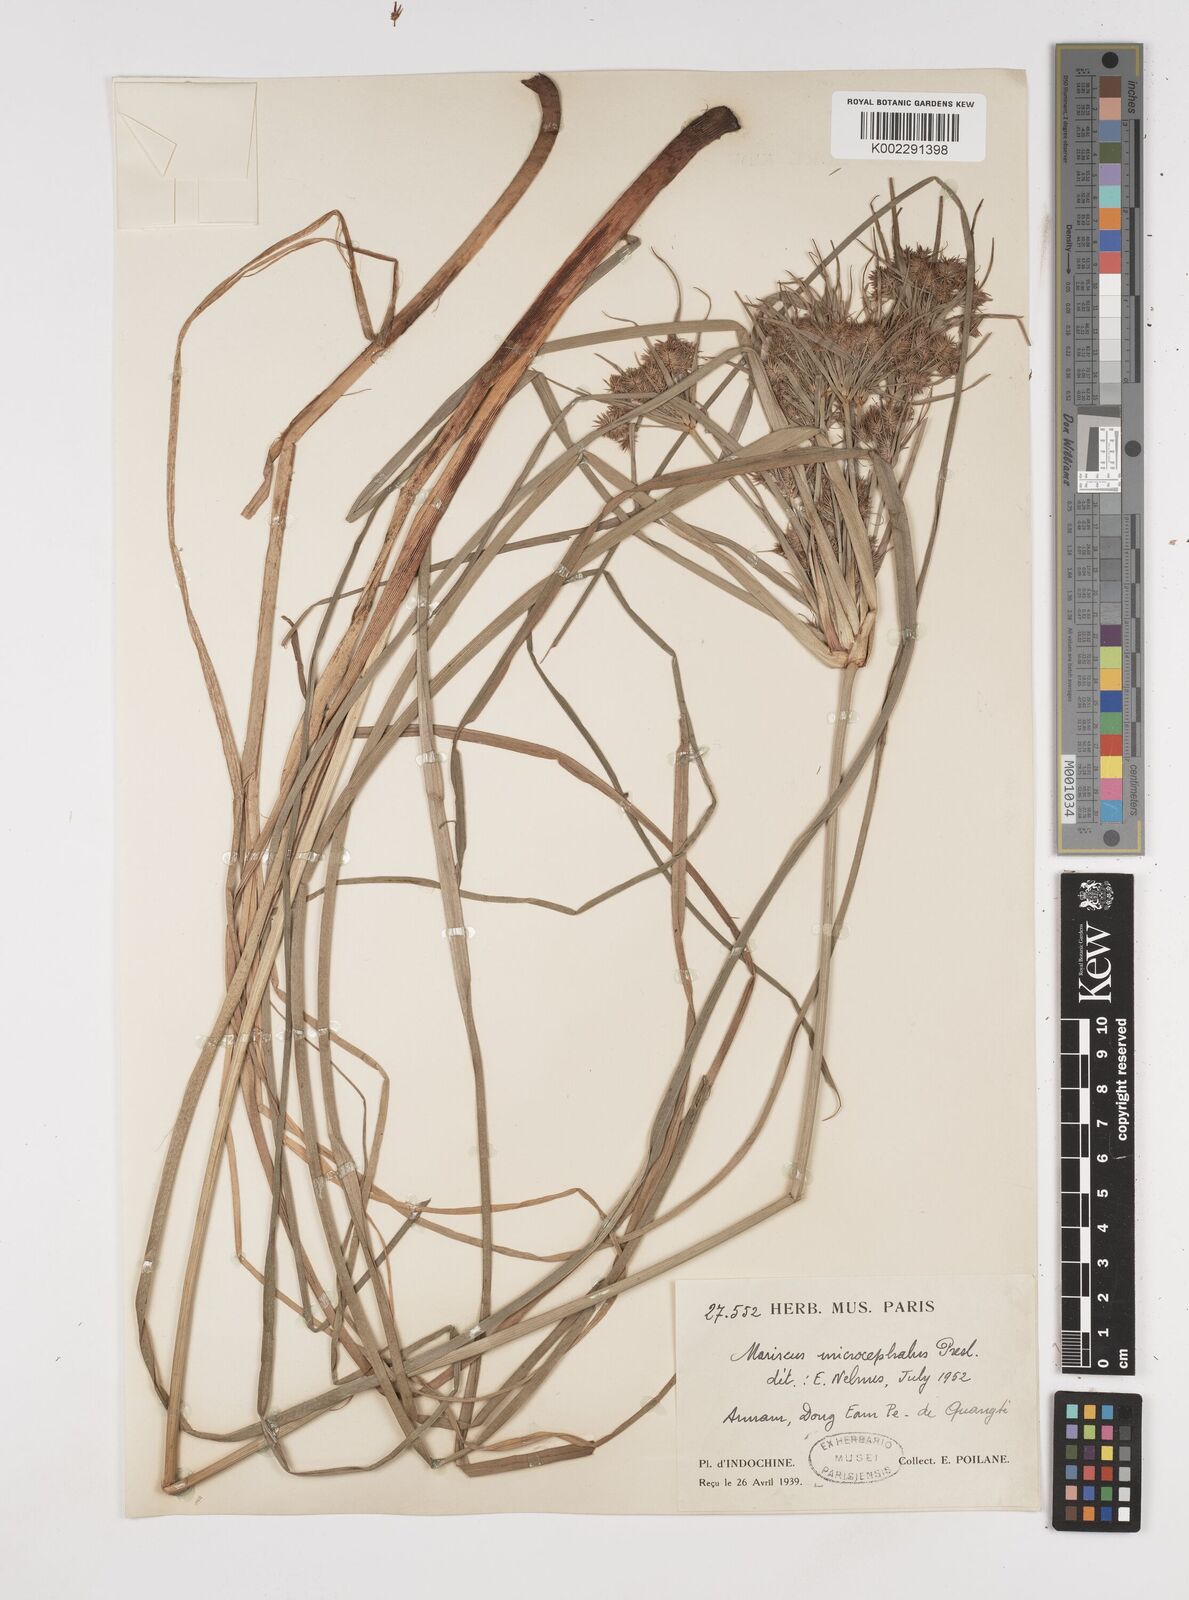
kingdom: Plantae
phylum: Tracheophyta
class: Liliopsida
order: Poales
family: Cyperaceae
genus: Cyperus
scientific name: Cyperus compactus
